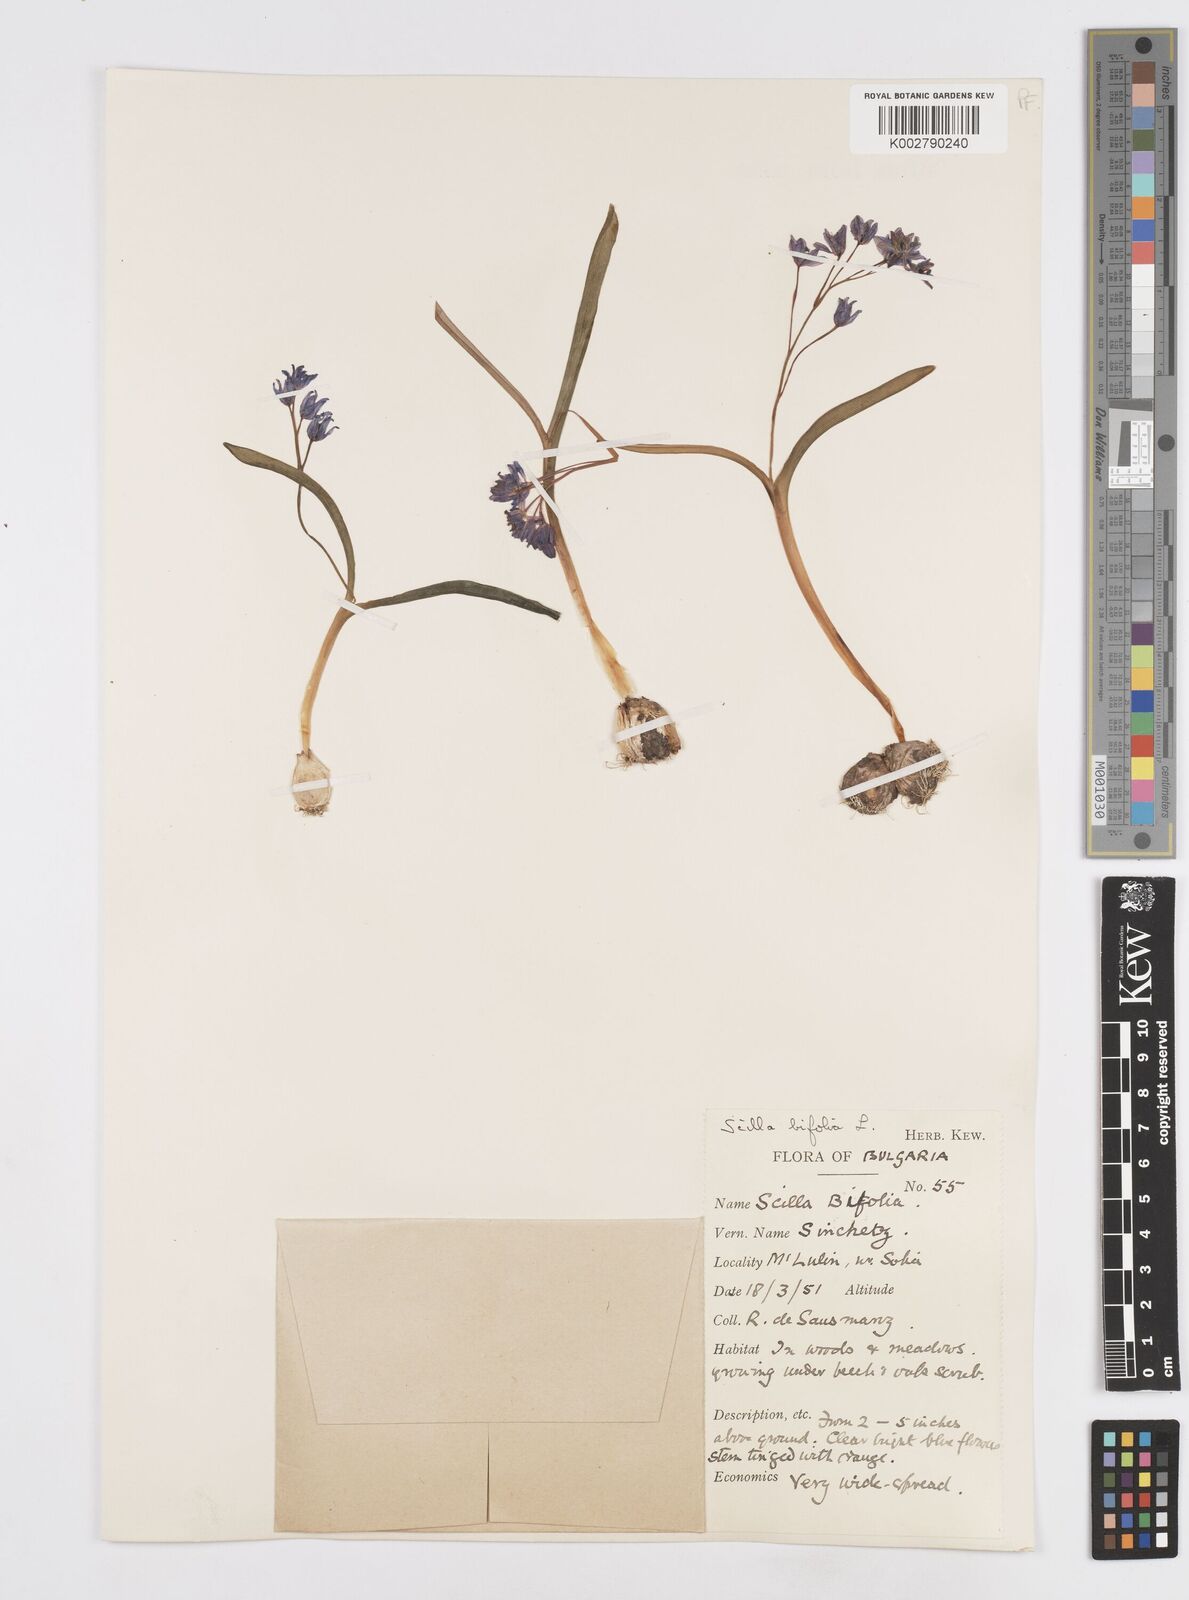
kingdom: Plantae
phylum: Tracheophyta
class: Liliopsida
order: Asparagales
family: Asparagaceae
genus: Scilla
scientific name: Scilla bifolia
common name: Alpine squill
